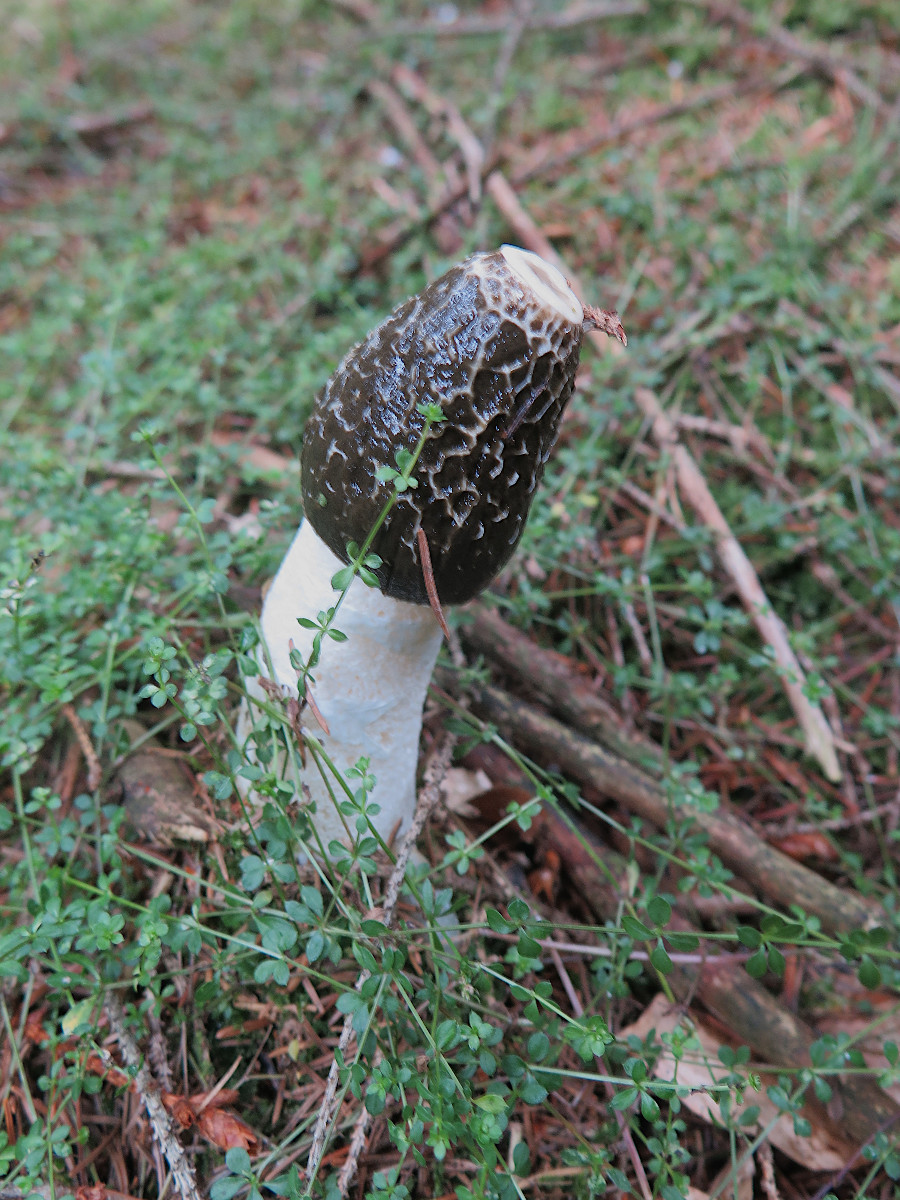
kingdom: Fungi
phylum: Basidiomycota
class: Agaricomycetes
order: Phallales
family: Phallaceae
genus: Phallus
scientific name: Phallus impudicus
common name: almindelig stinksvamp
